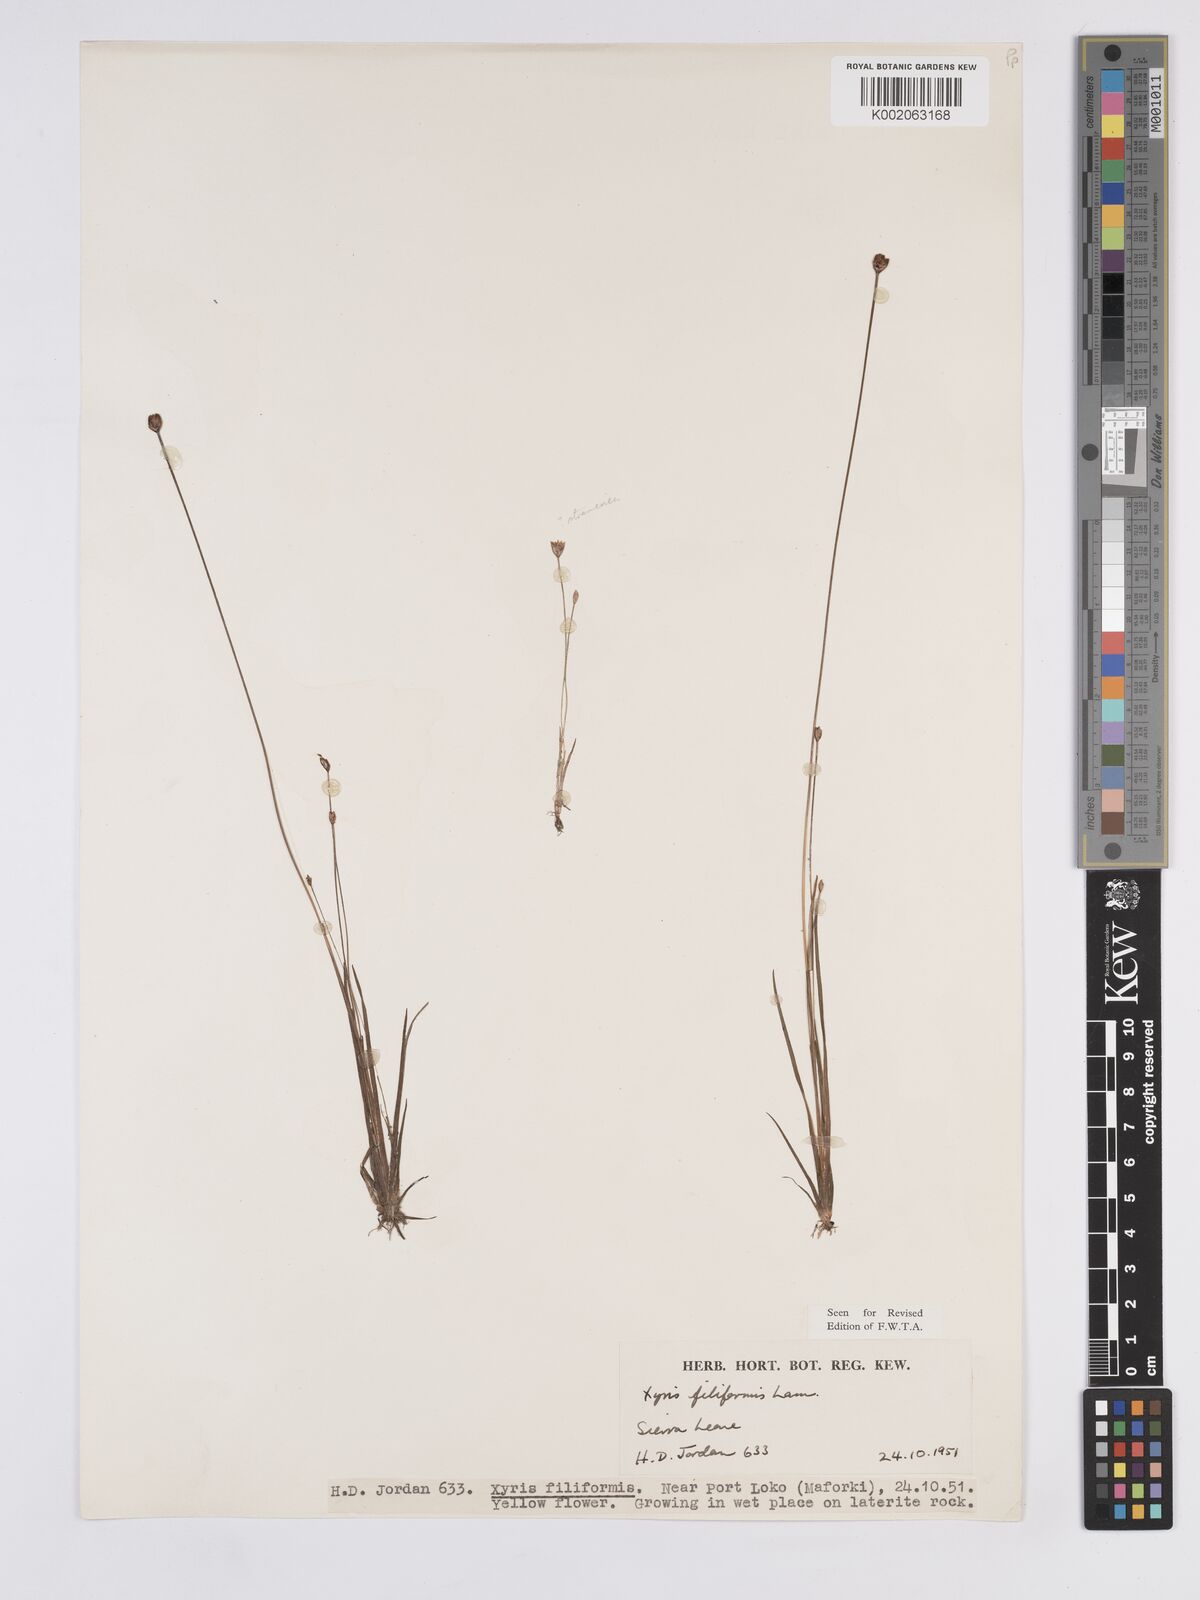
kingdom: Plantae
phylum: Tracheophyta
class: Liliopsida
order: Poales
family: Xyridaceae
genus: Xyris
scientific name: Xyris filiformis
